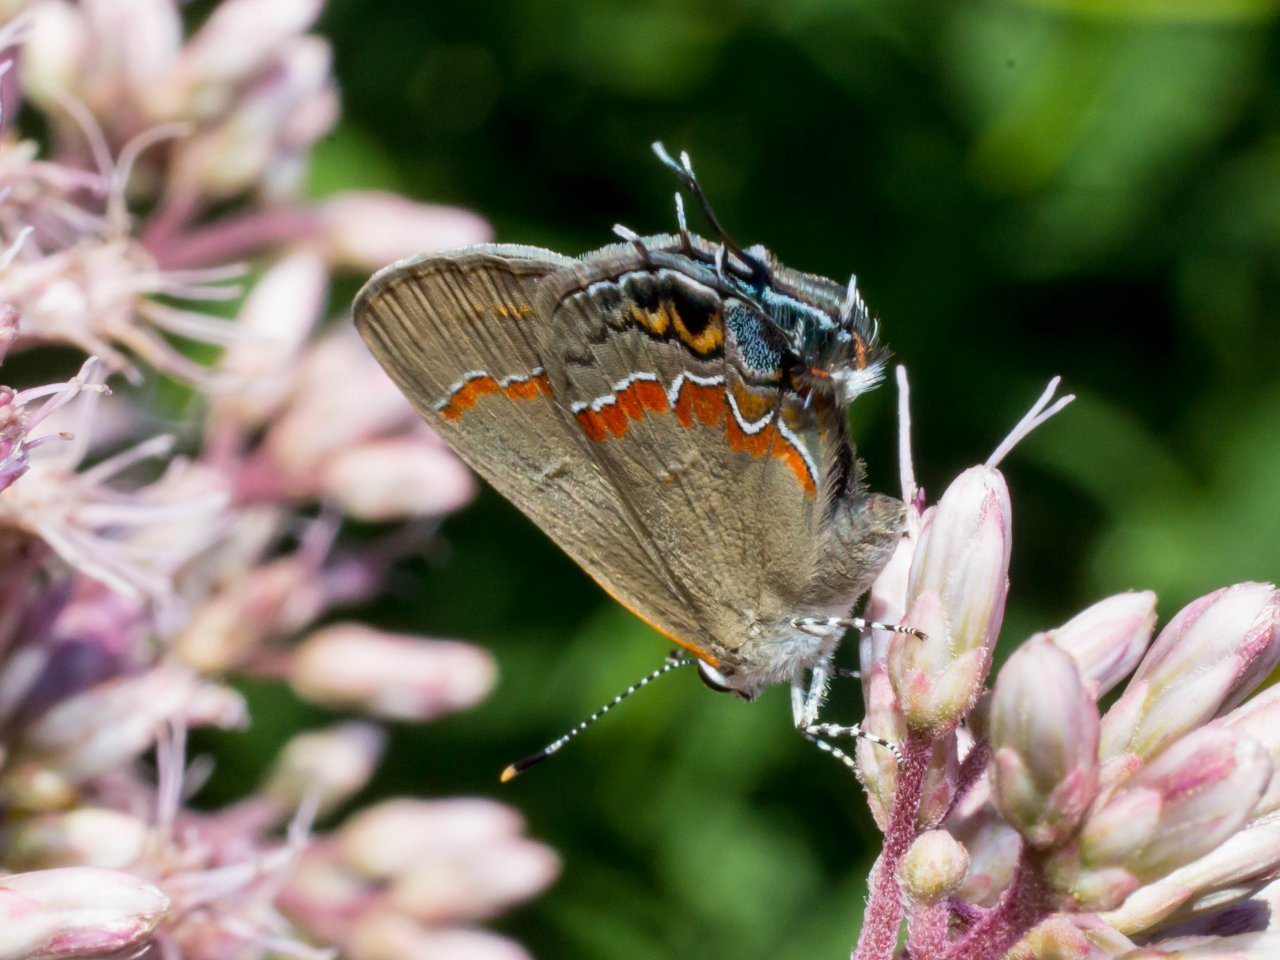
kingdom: Animalia
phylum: Arthropoda
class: Insecta
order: Lepidoptera
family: Lycaenidae
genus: Calycopis
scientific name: Calycopis cecrops
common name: Red-banded Hairstreak
